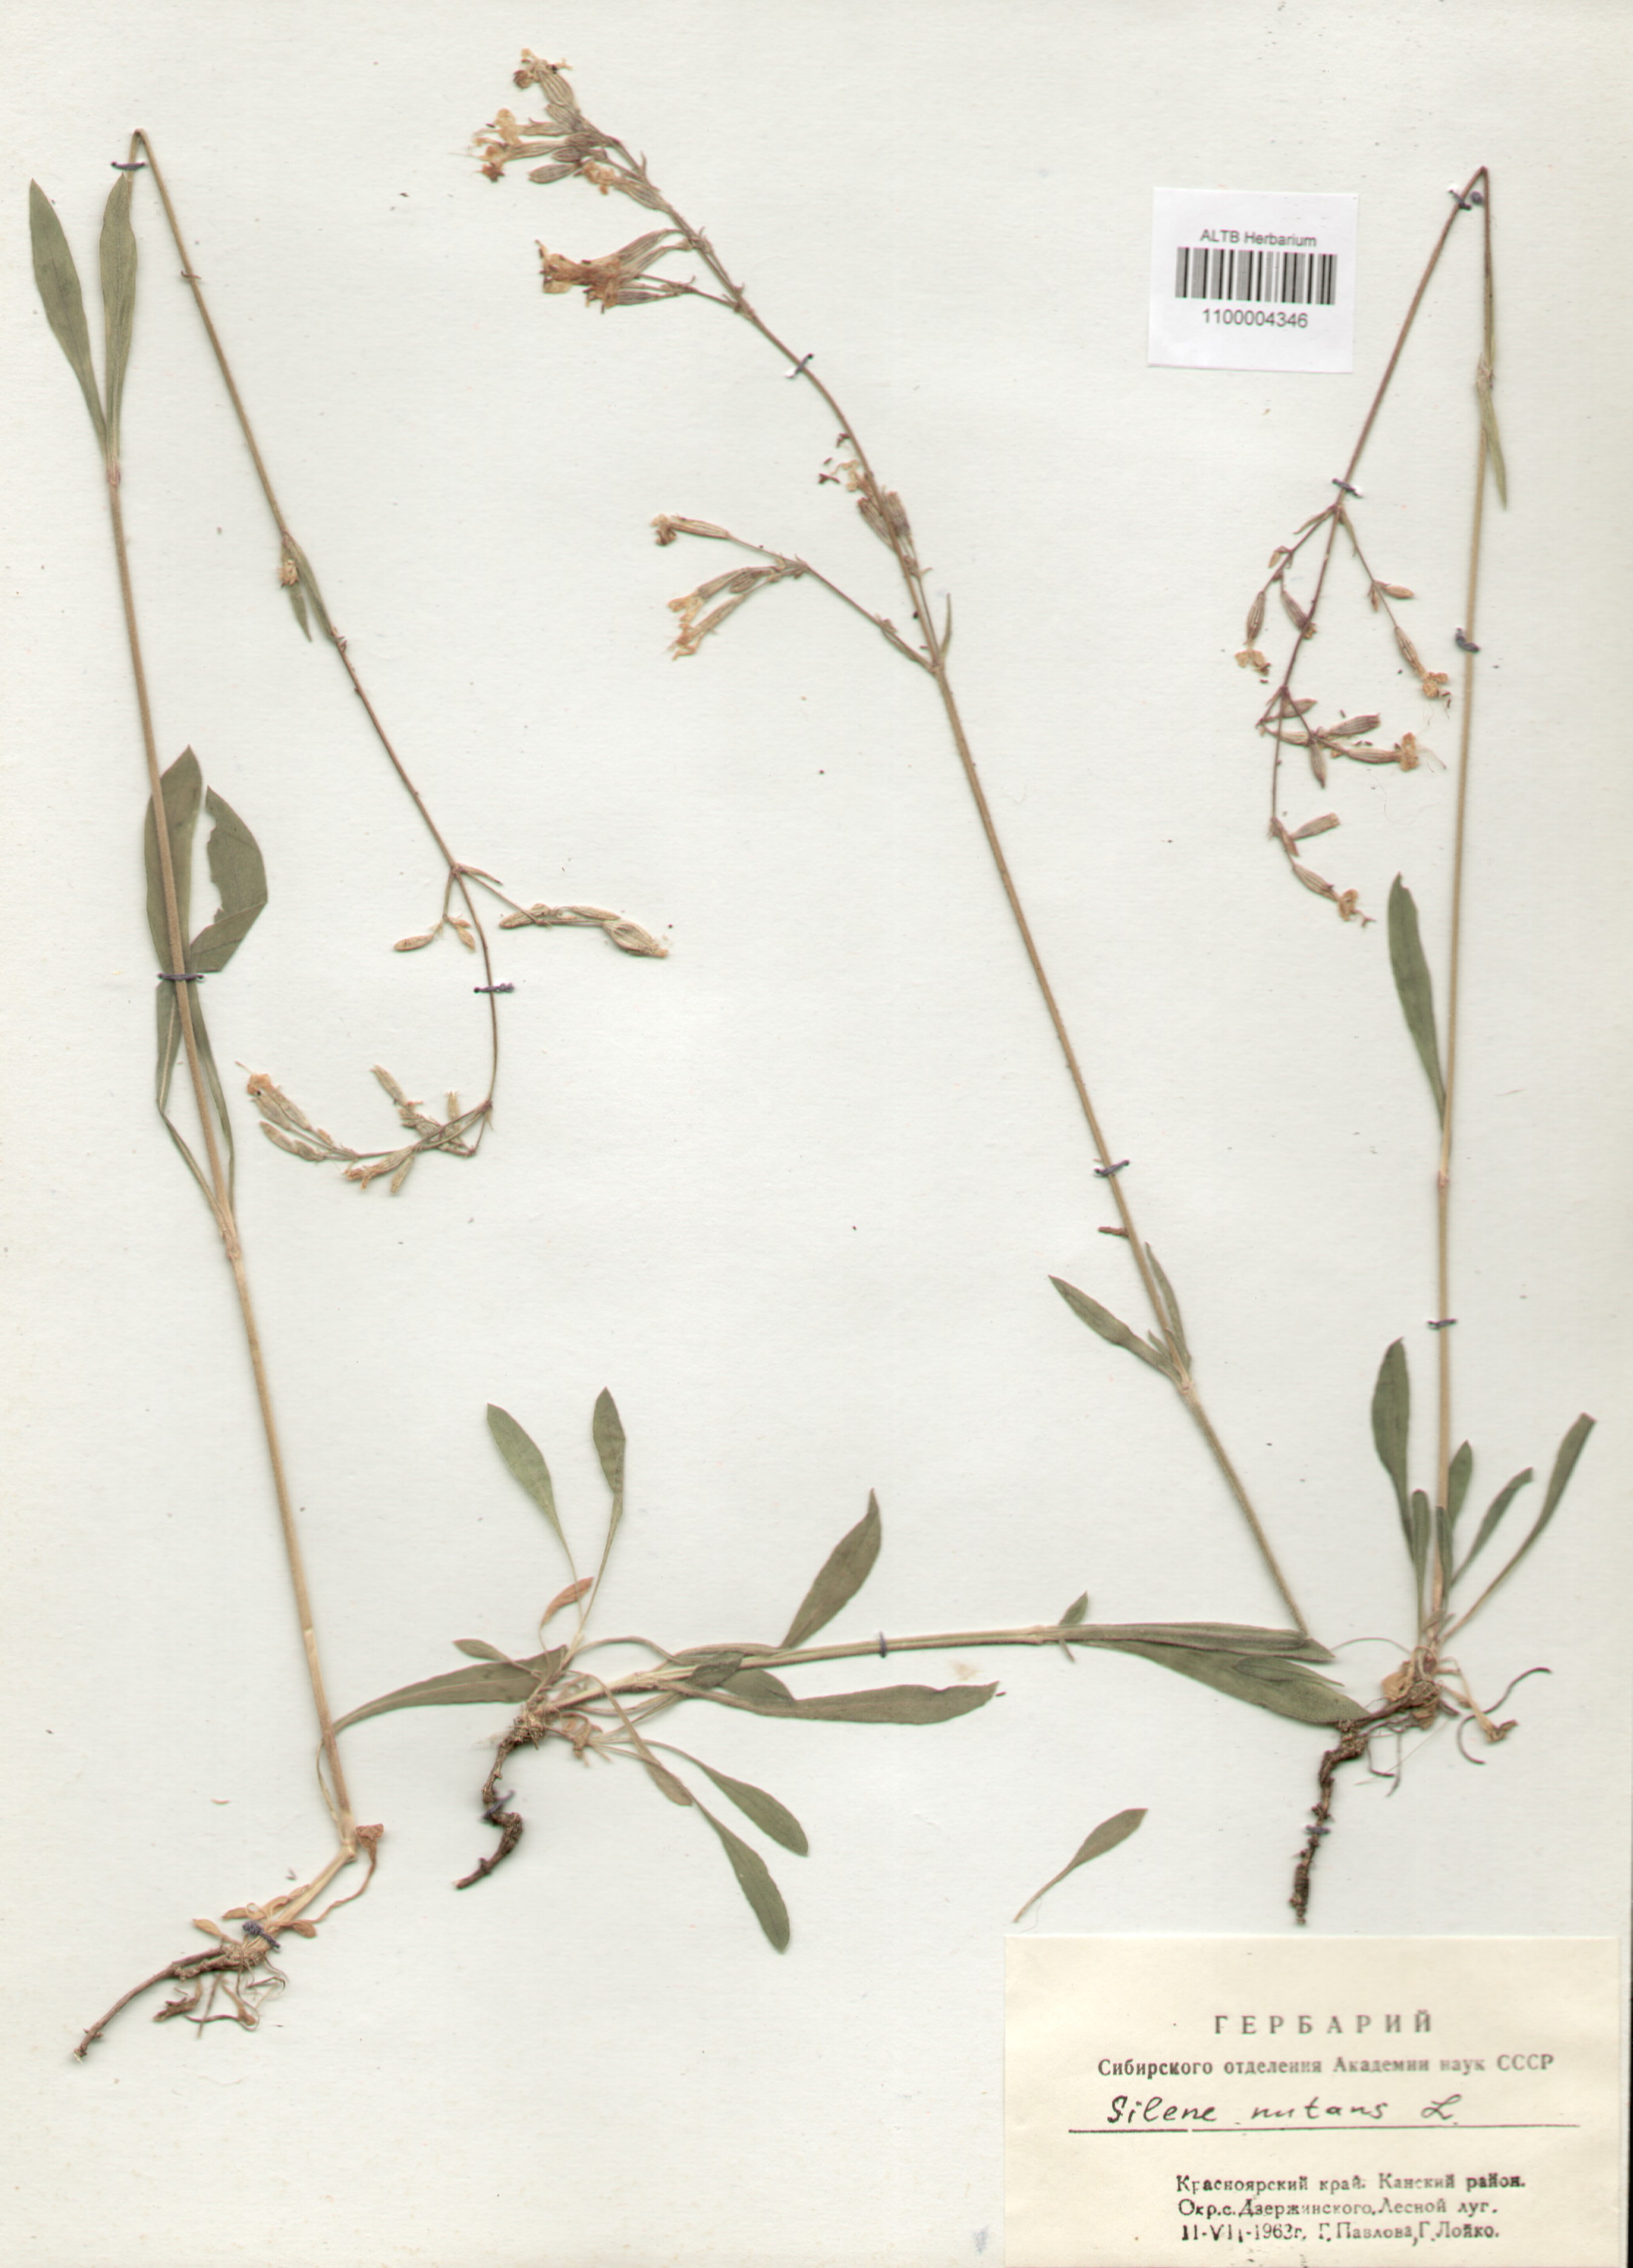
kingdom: Plantae
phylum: Tracheophyta
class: Magnoliopsida
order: Caryophyllales
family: Caryophyllaceae
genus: Silene
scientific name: Silene nutans
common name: Nottingham catchfly
